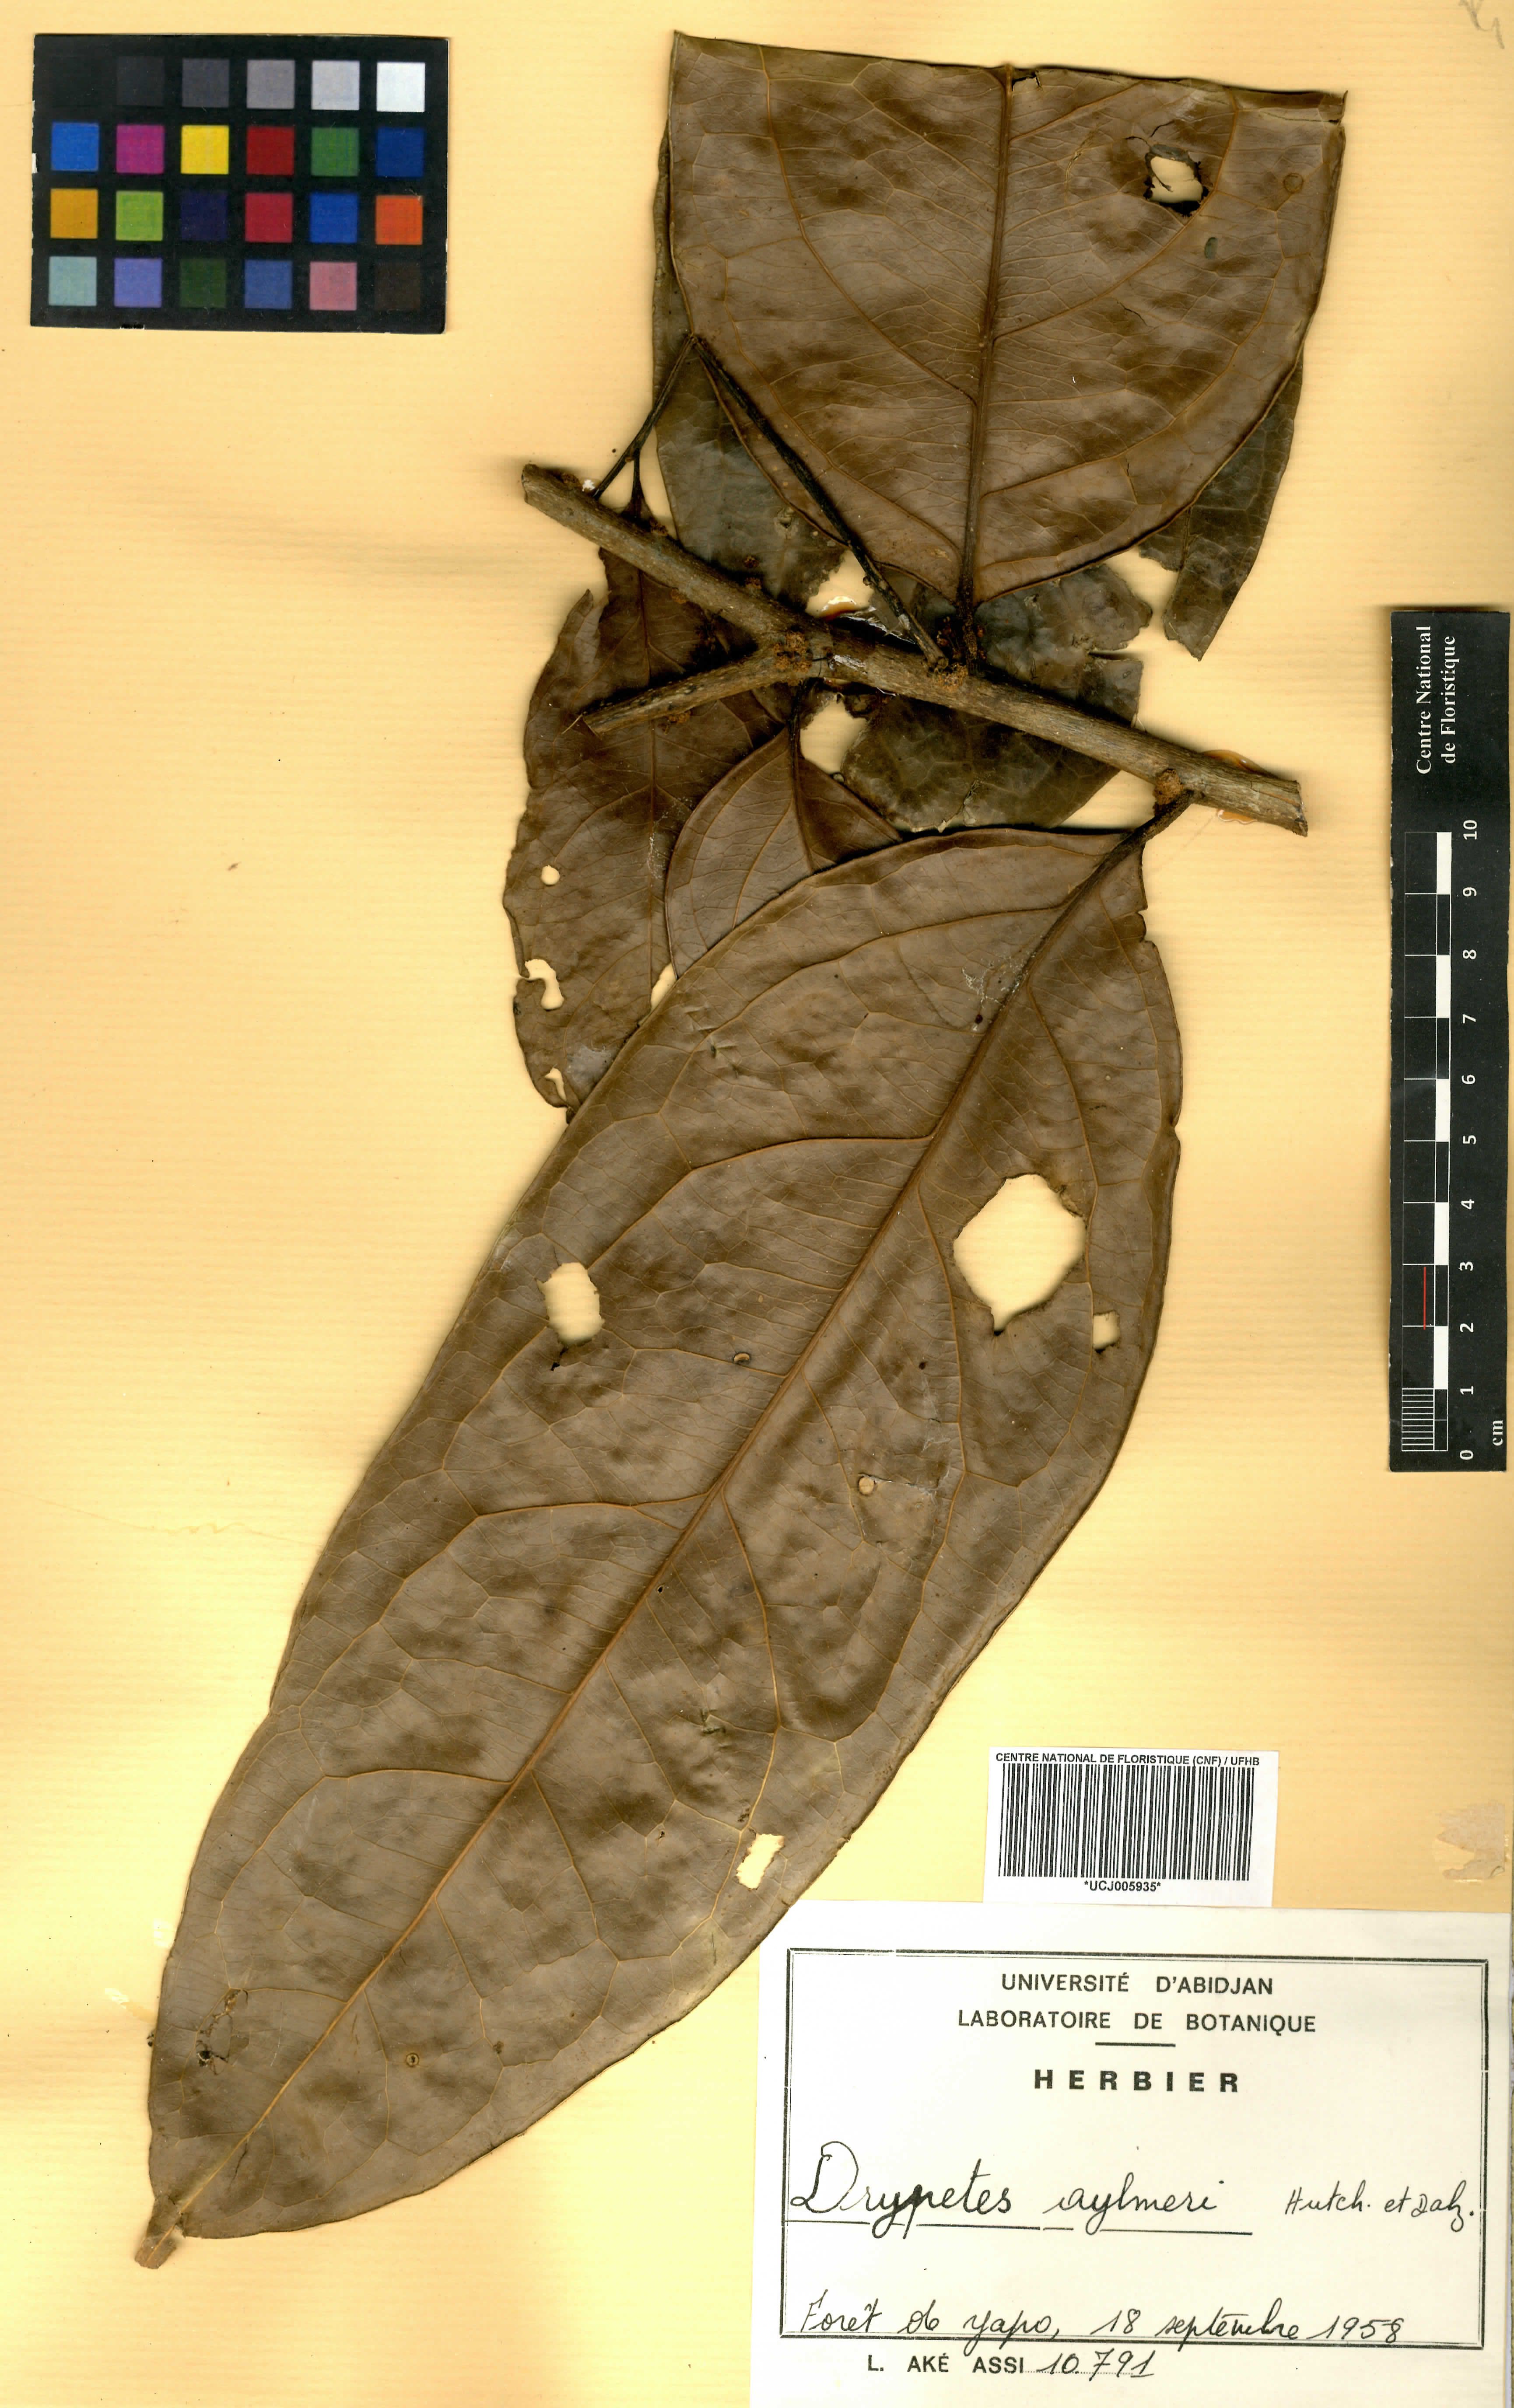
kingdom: Plantae
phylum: Tracheophyta
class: Magnoliopsida
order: Malpighiales
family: Putranjivaceae
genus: Drypetes
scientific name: Drypetes aylmeri
